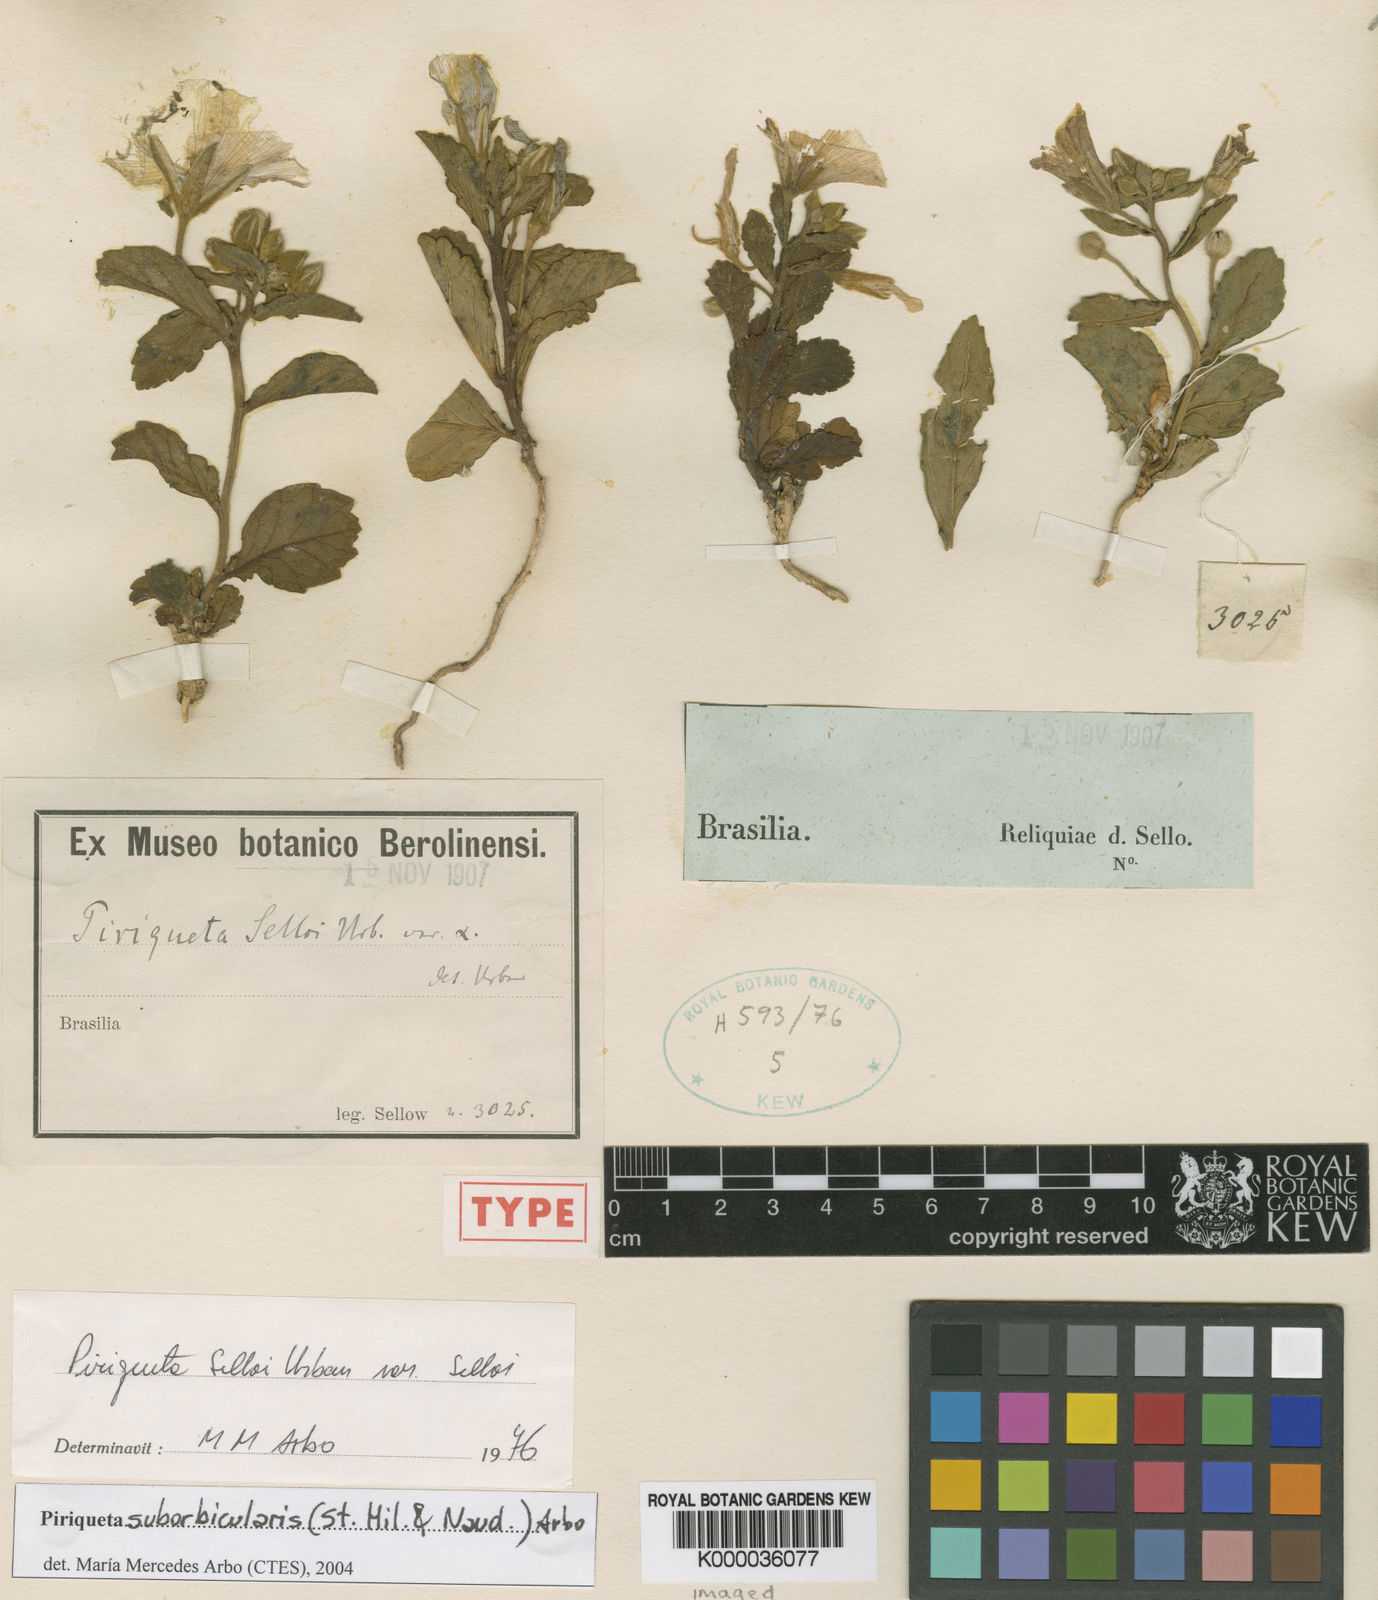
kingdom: Plantae
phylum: Tracheophyta
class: Magnoliopsida
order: Malpighiales
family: Turneraceae
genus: Piriqueta
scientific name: Piriqueta
